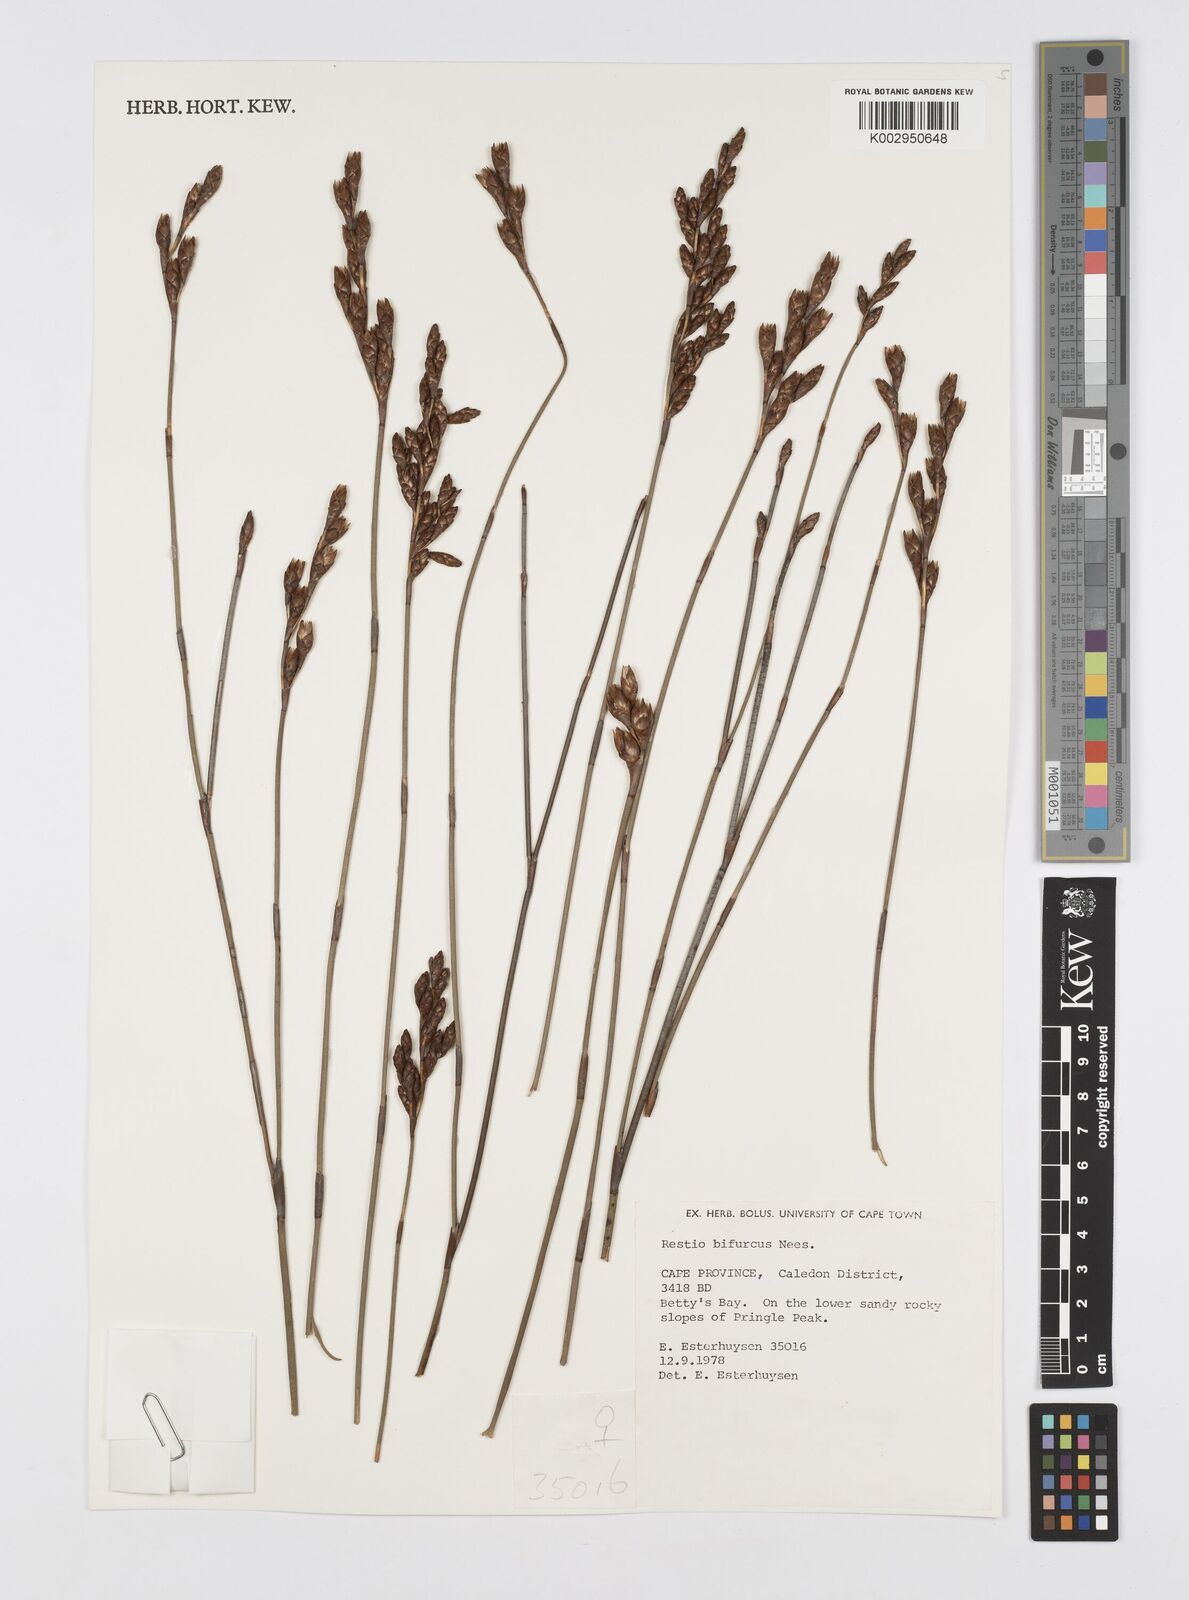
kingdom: Plantae
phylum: Tracheophyta
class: Liliopsida
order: Poales
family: Restionaceae
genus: Restio
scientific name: Restio bifurcus
